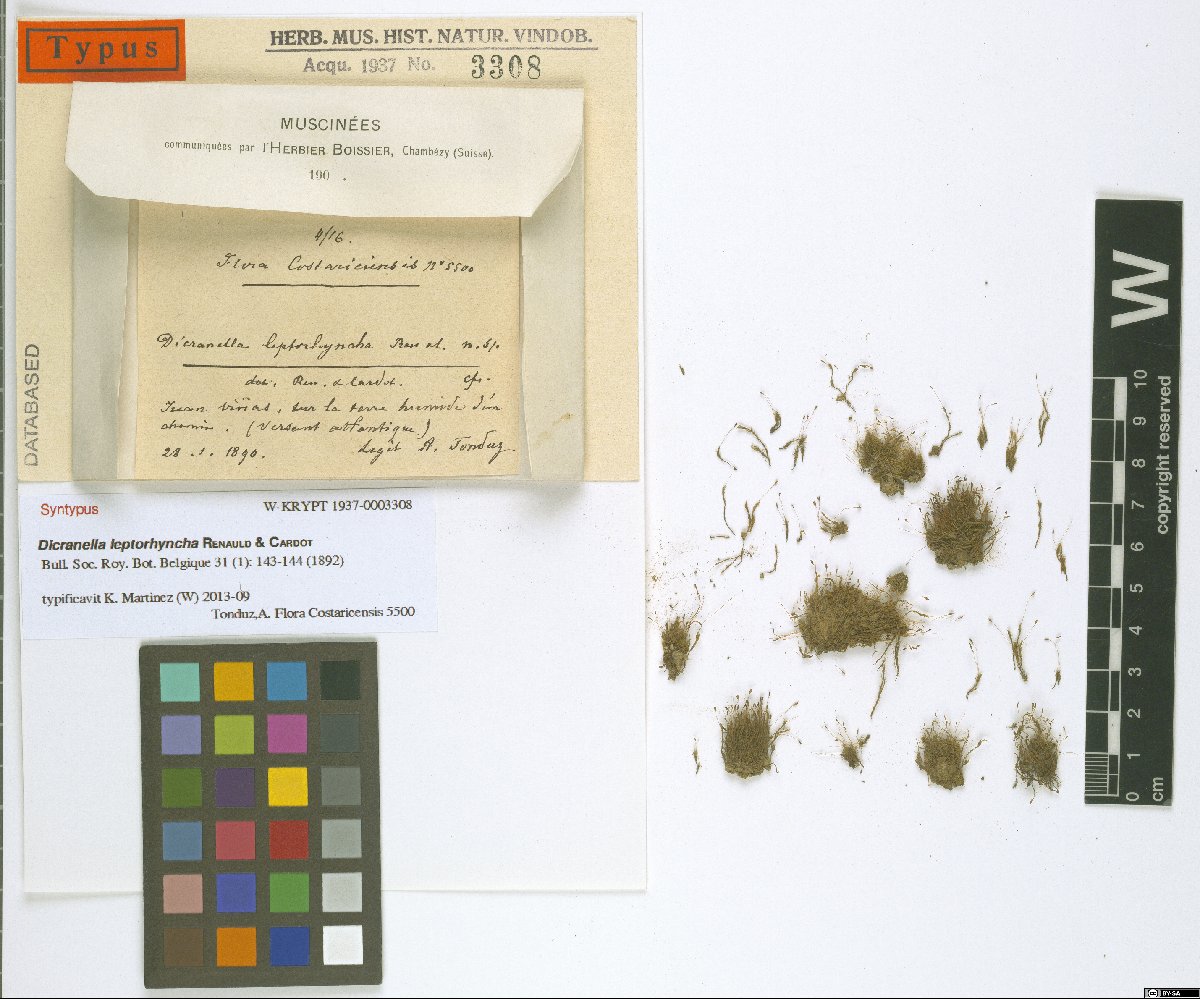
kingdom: Plantae
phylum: Bryophyta
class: Bryopsida
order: Dicranales
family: Dicranellaceae
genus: Dicranella
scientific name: Dicranella hilariana
